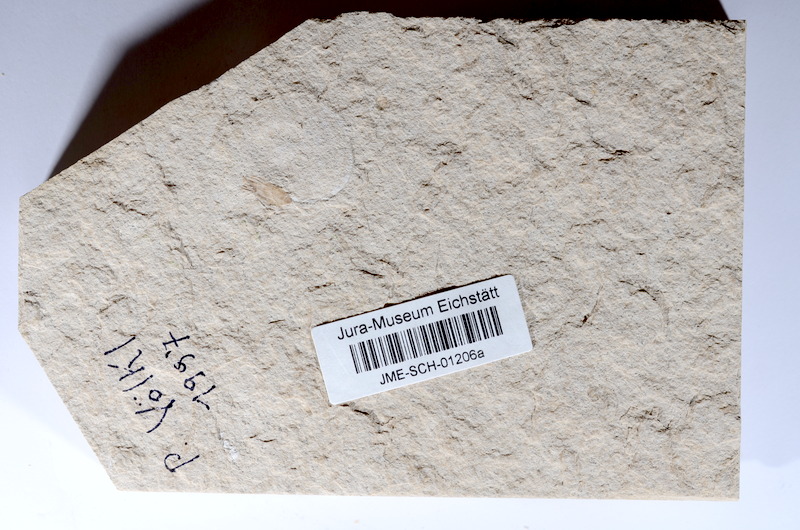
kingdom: Animalia
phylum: Chordata
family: Ascalaboidae
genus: Tharsis
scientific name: Tharsis dubius
